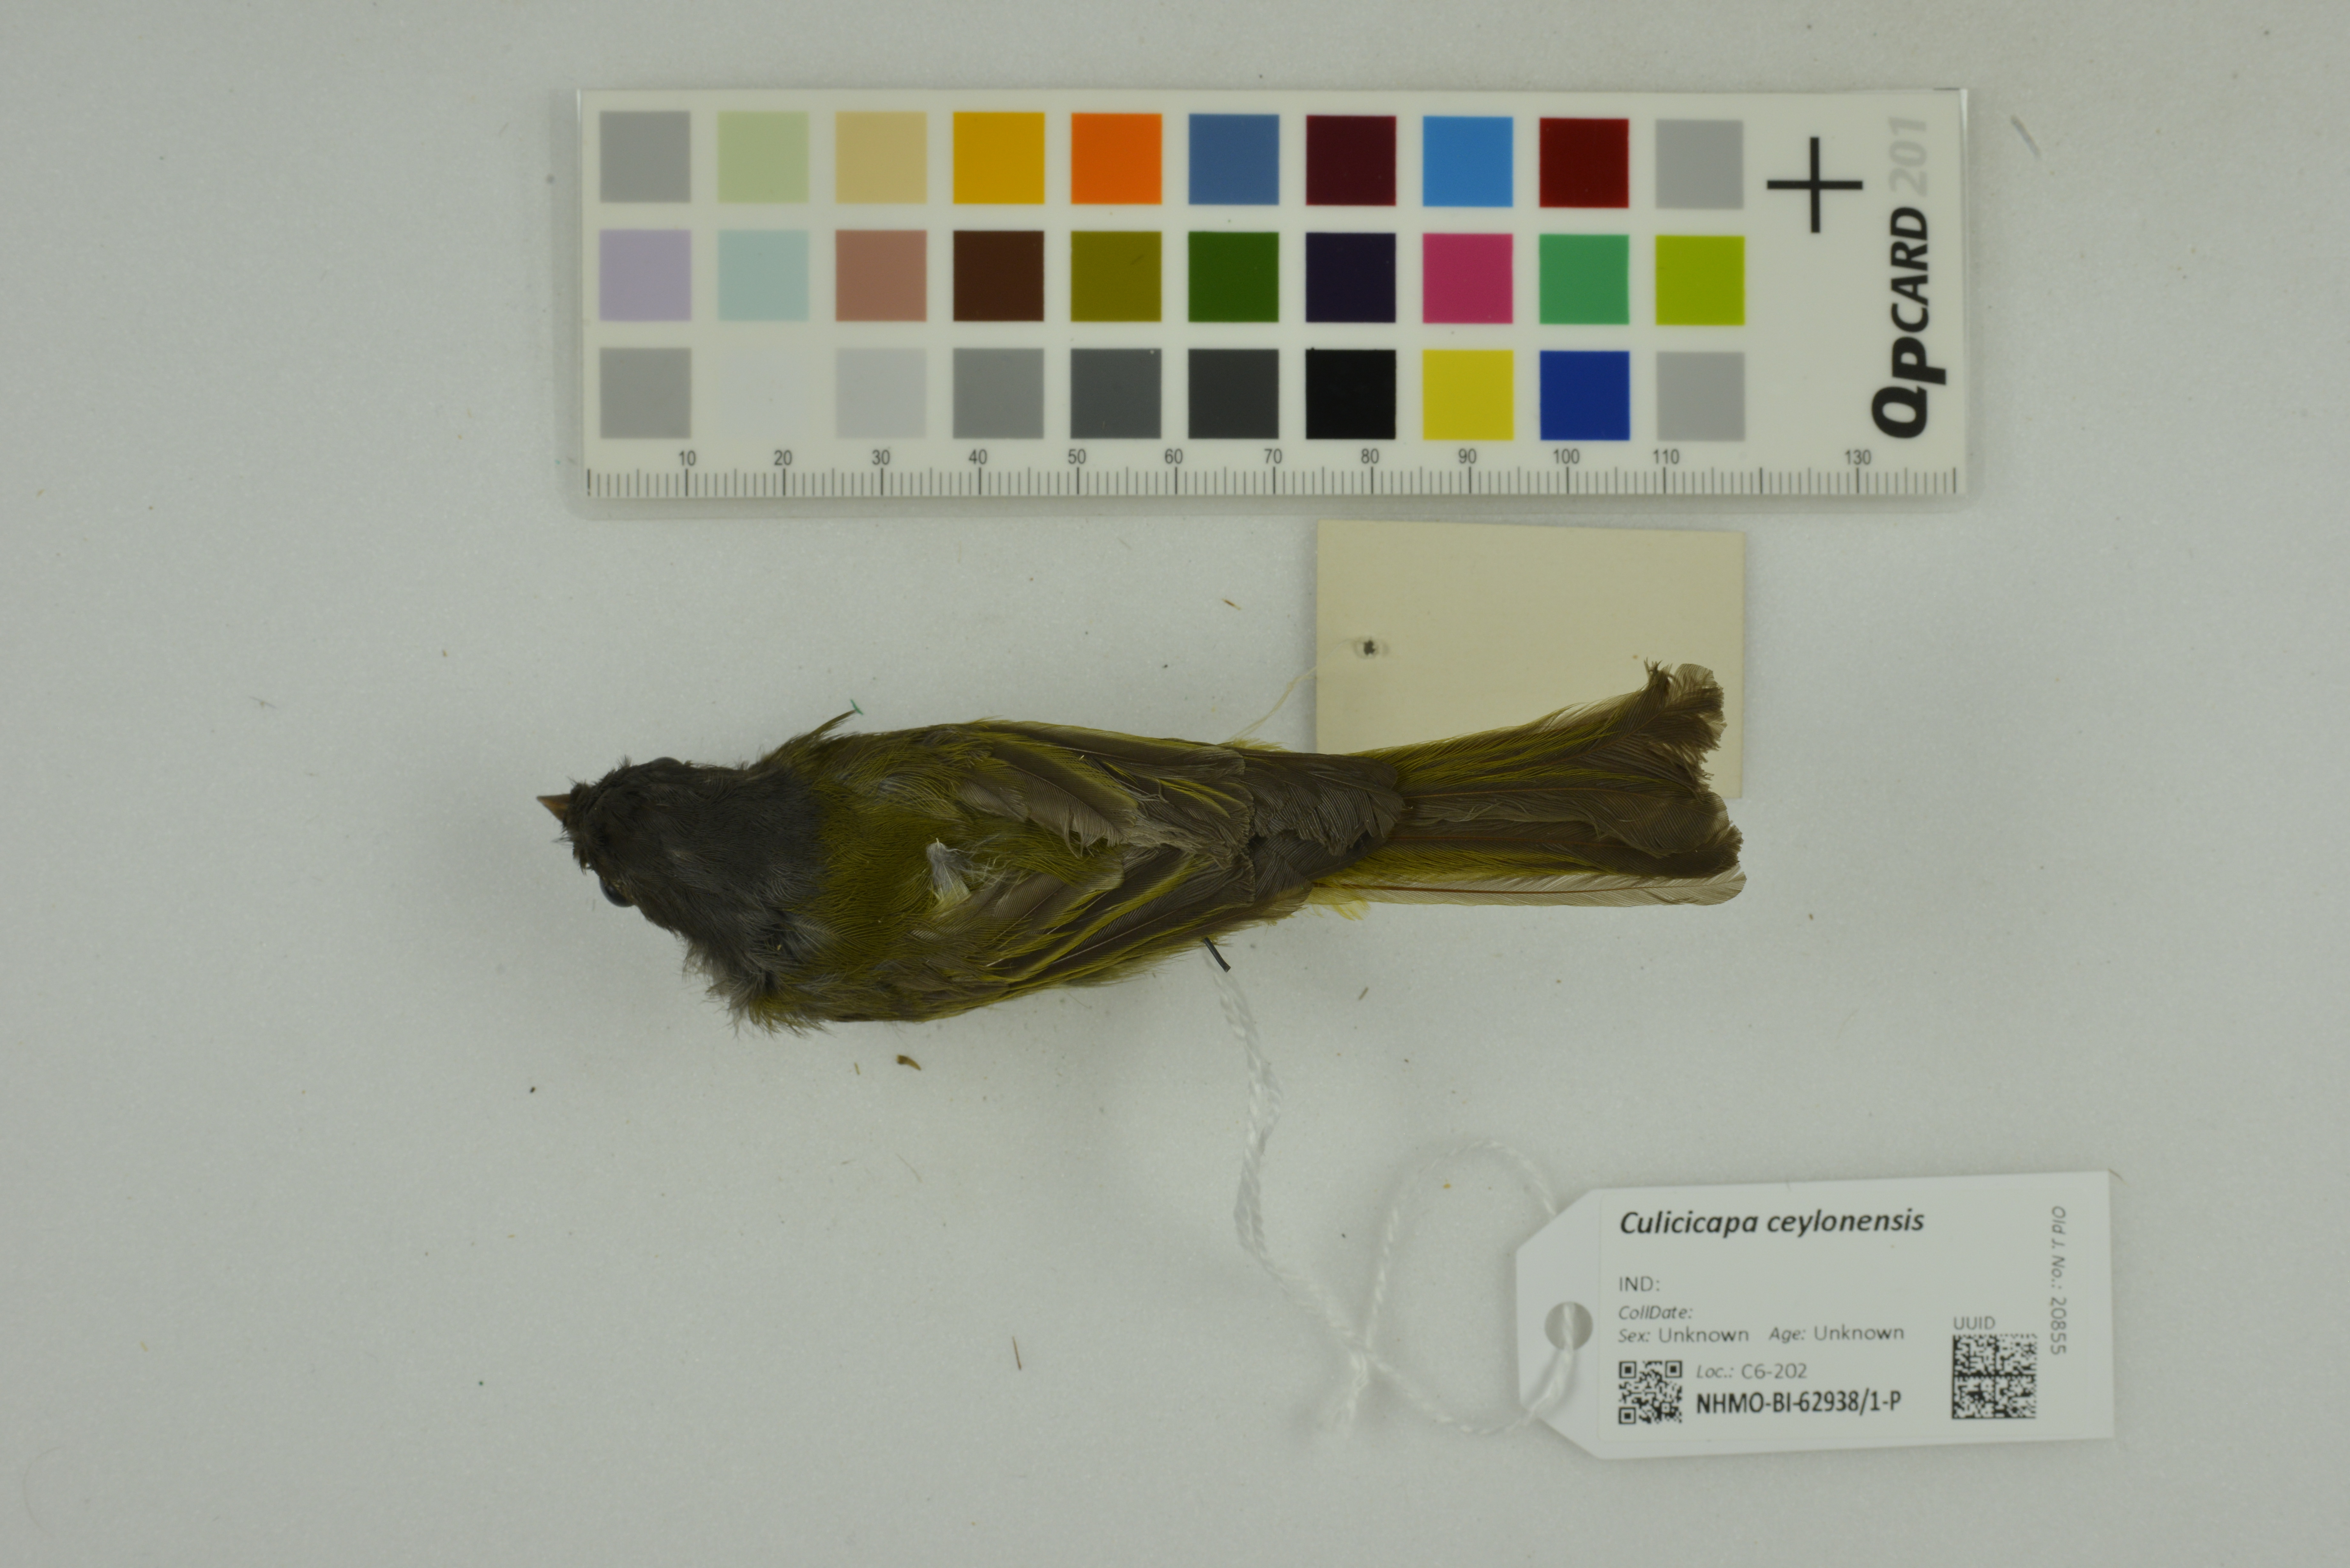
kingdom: Animalia
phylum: Chordata
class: Aves
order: Passeriformes
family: Stenostiridae
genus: Culicicapa
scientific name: Culicicapa ceylonensis
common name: Grey-headed canary-flycatcher
